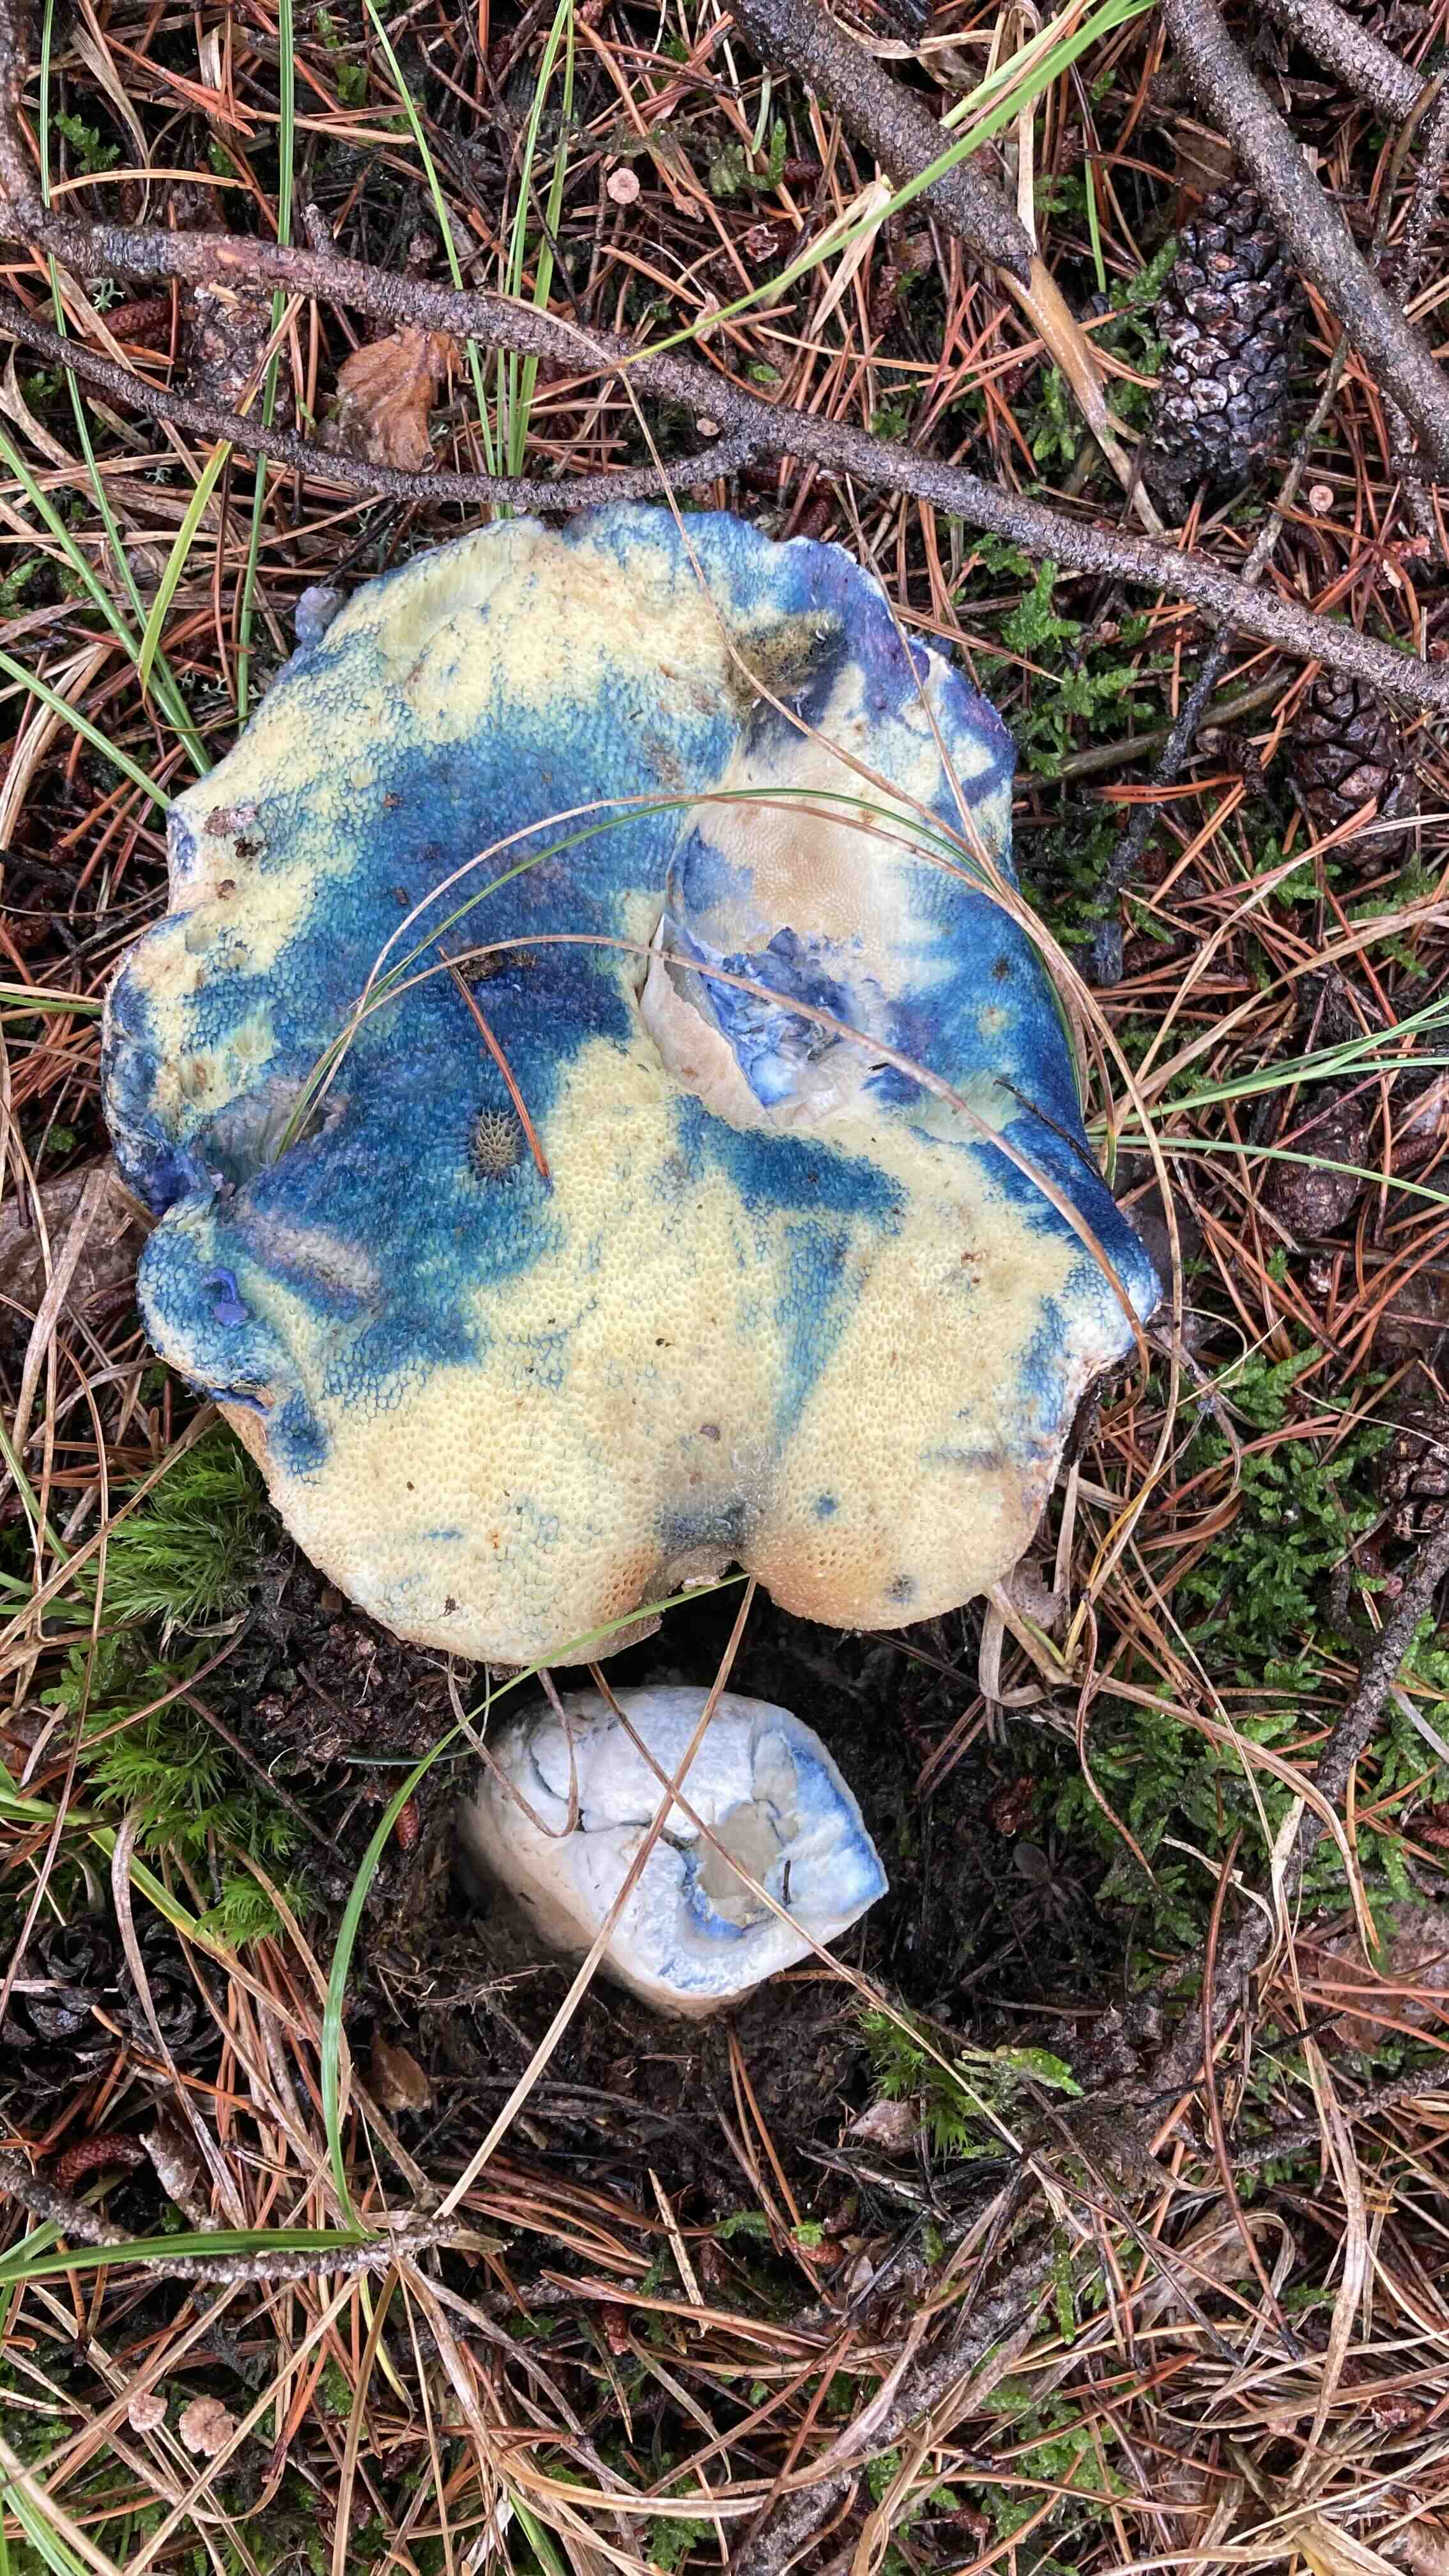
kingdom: Fungi
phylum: Basidiomycota
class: Agaricomycetes
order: Boletales
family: Gyroporaceae
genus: Gyroporus
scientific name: Gyroporus cyanescens
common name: blånende kammerrørhat
